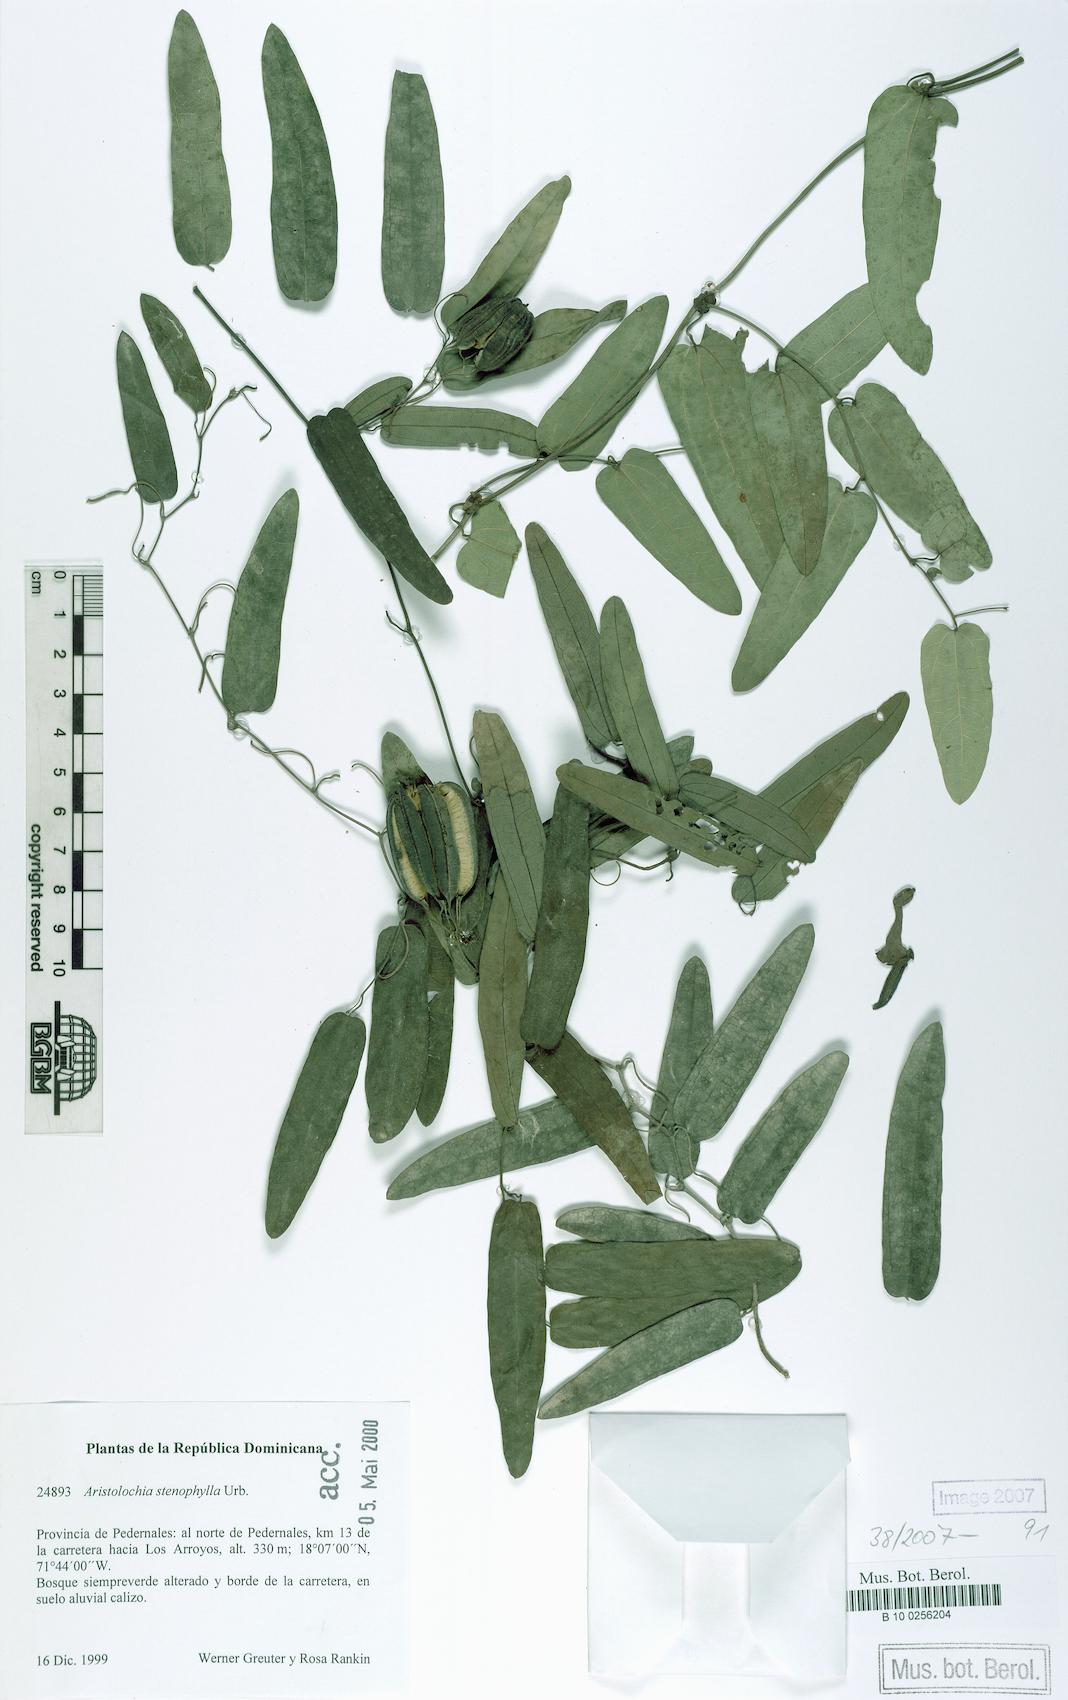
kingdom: Plantae
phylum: Tracheophyta
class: Magnoliopsida
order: Piperales
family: Aristolochiaceae
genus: Aristolochia
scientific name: Aristolochia linearifolia
